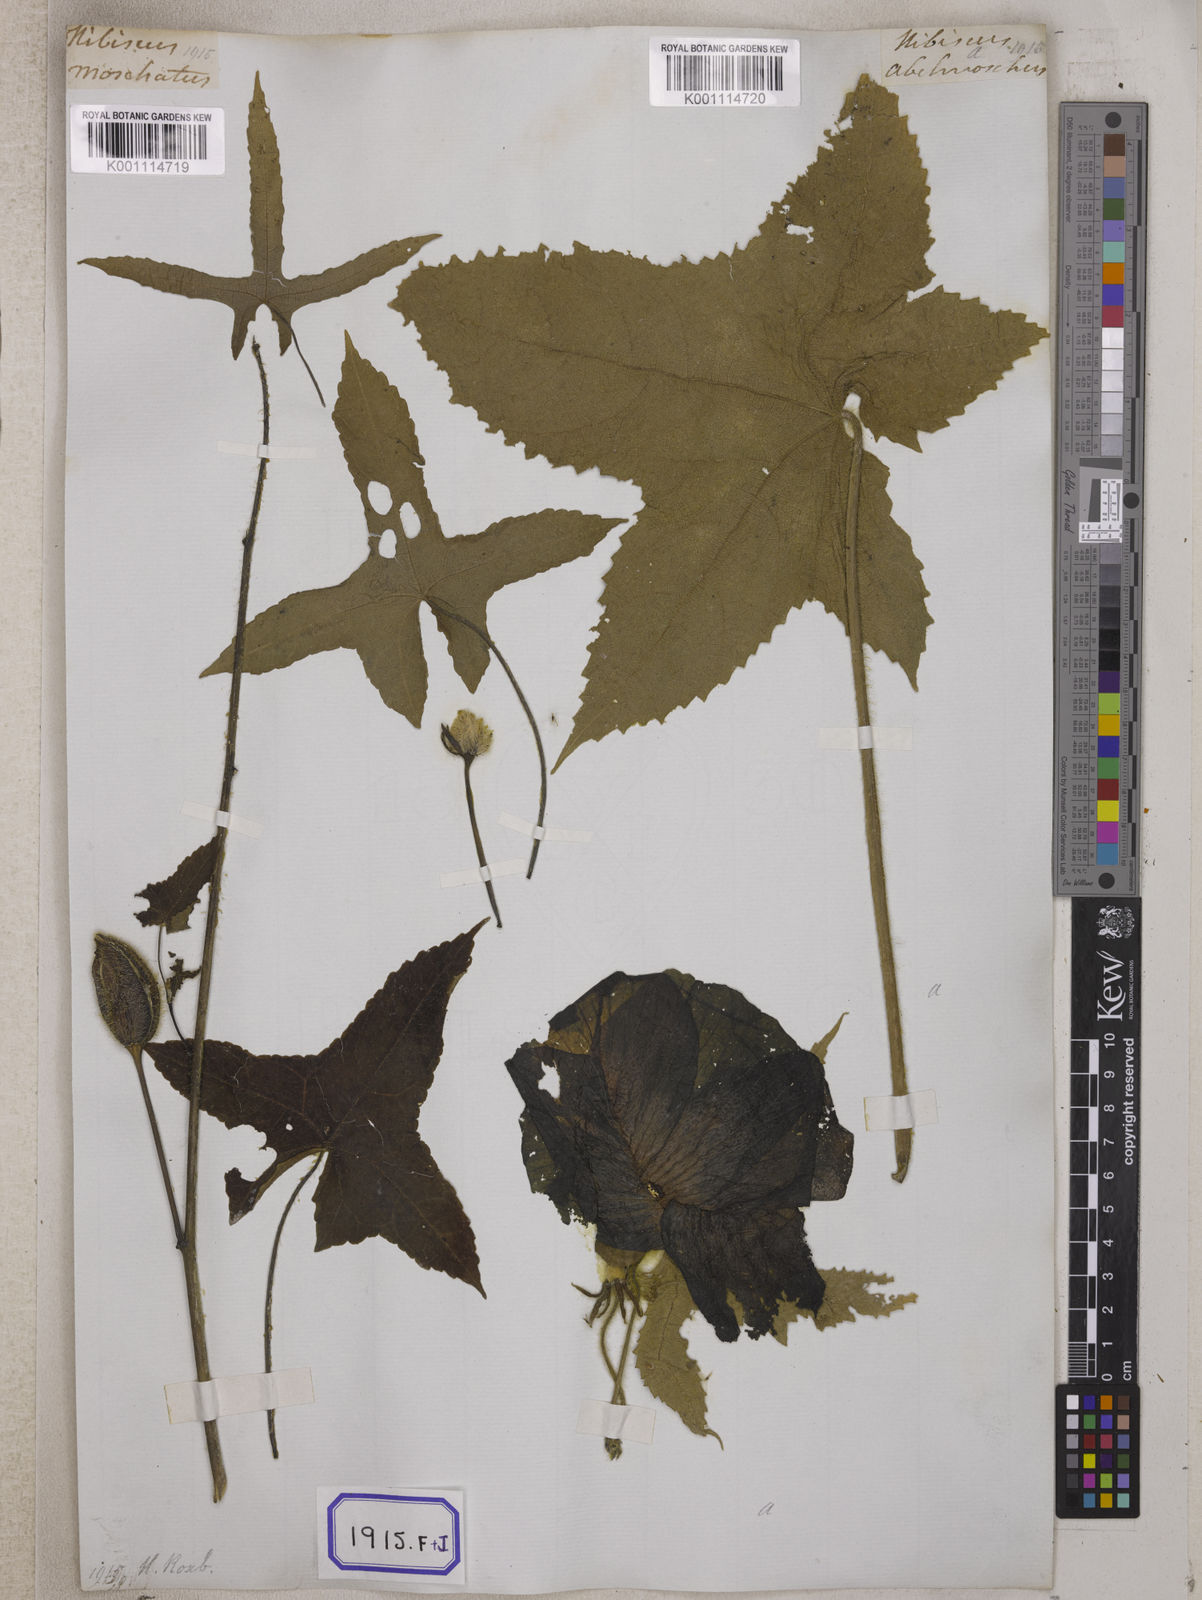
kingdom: Plantae
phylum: Tracheophyta
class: Magnoliopsida
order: Malvales
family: Malvaceae
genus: Bamia
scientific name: Bamia
